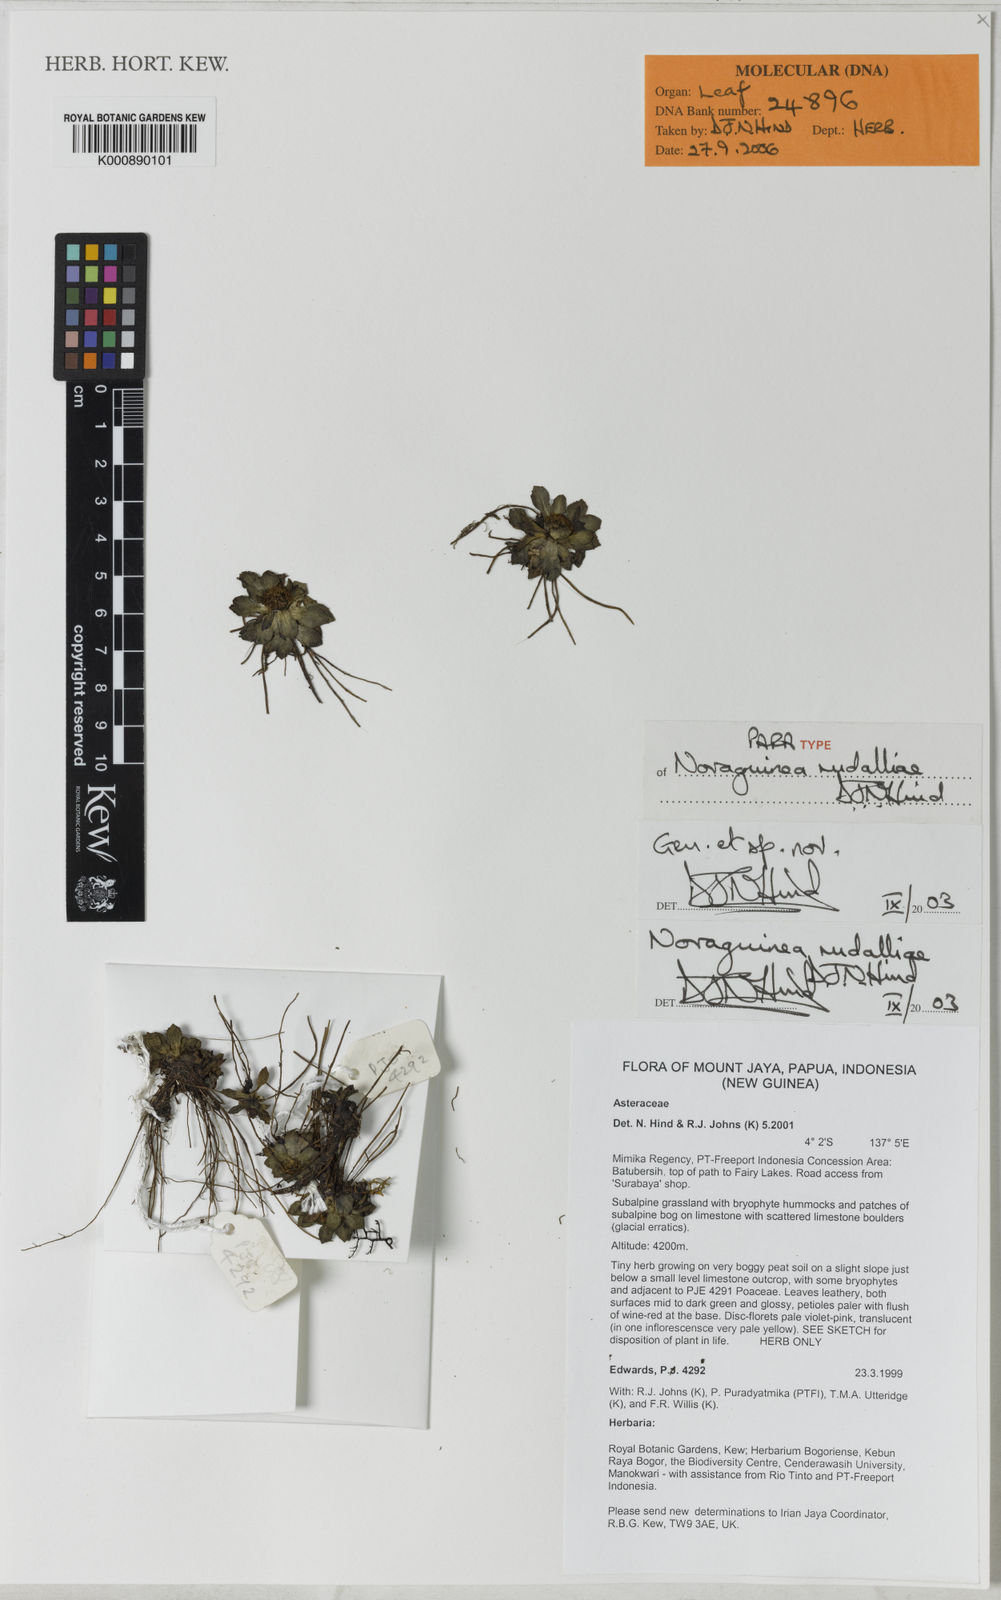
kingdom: Plantae
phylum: Tracheophyta
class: Magnoliopsida
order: Asterales
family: Asteraceae
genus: Novaguinea
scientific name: Novaguinea rudalliae
